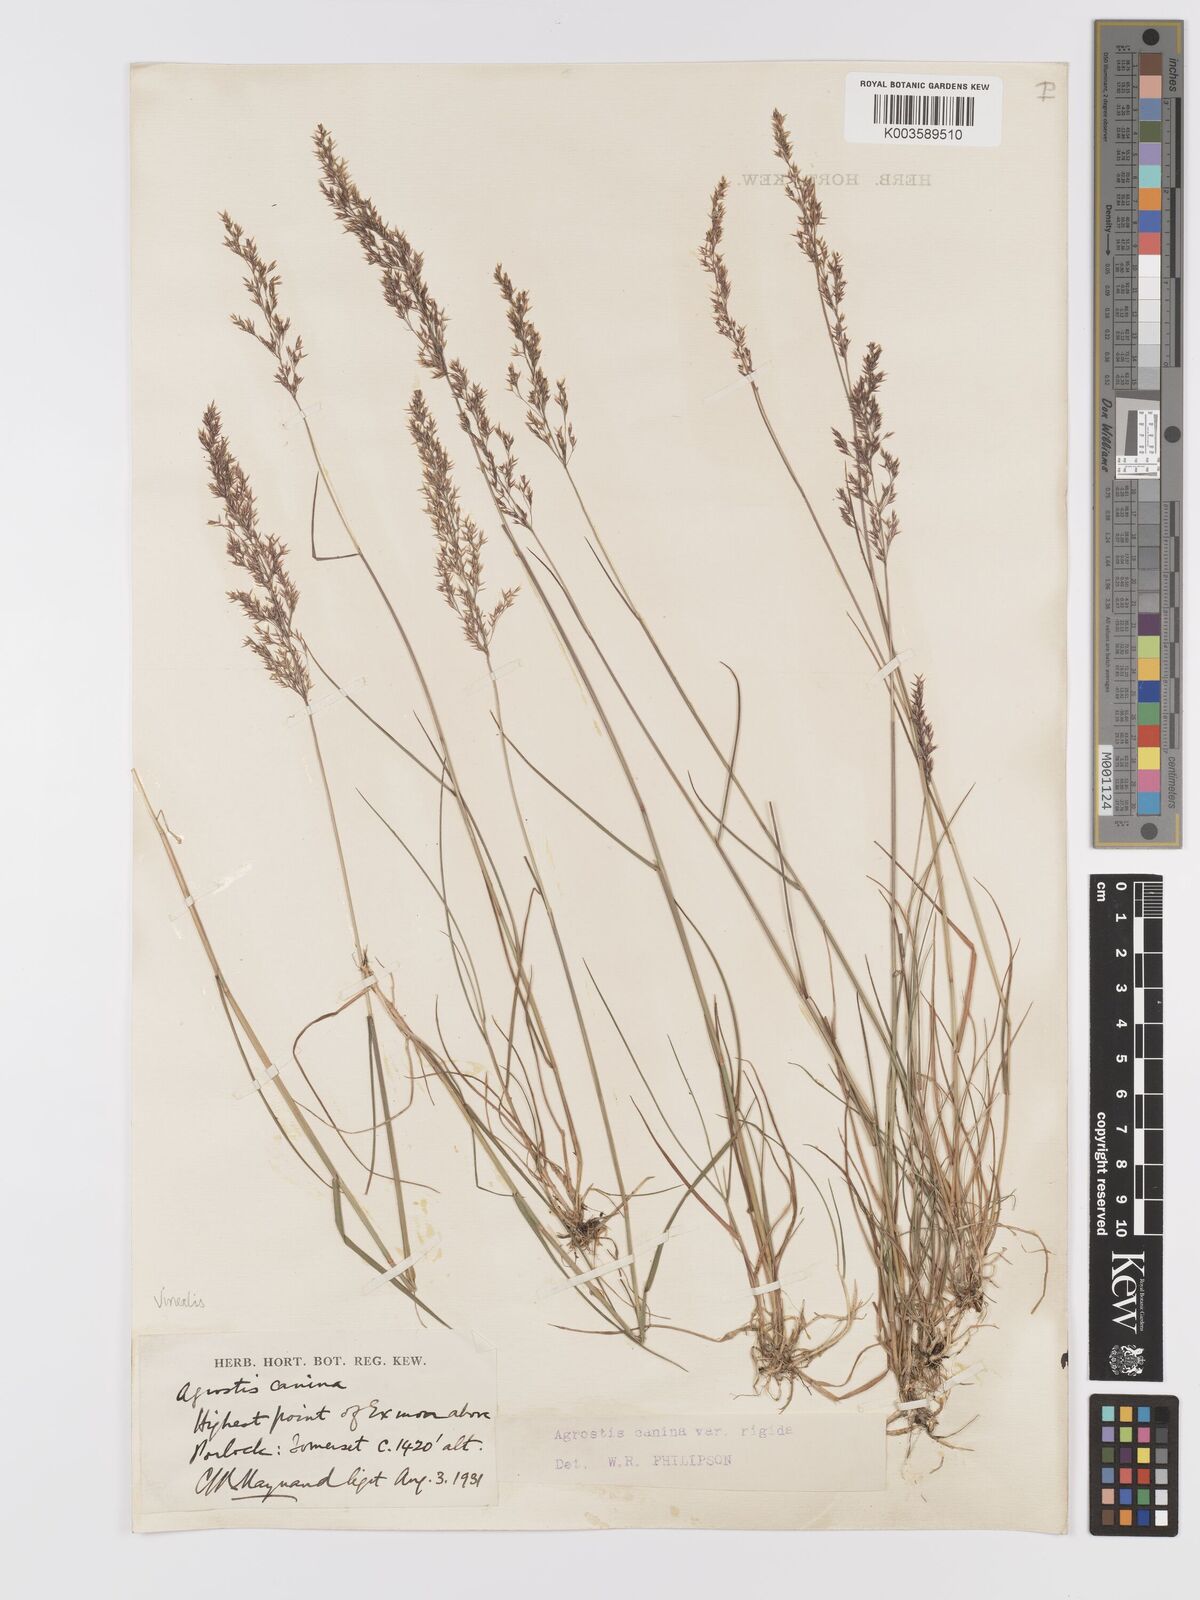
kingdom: Plantae
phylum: Tracheophyta
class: Liliopsida
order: Poales
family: Poaceae
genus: Agrostis
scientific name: Agrostis
